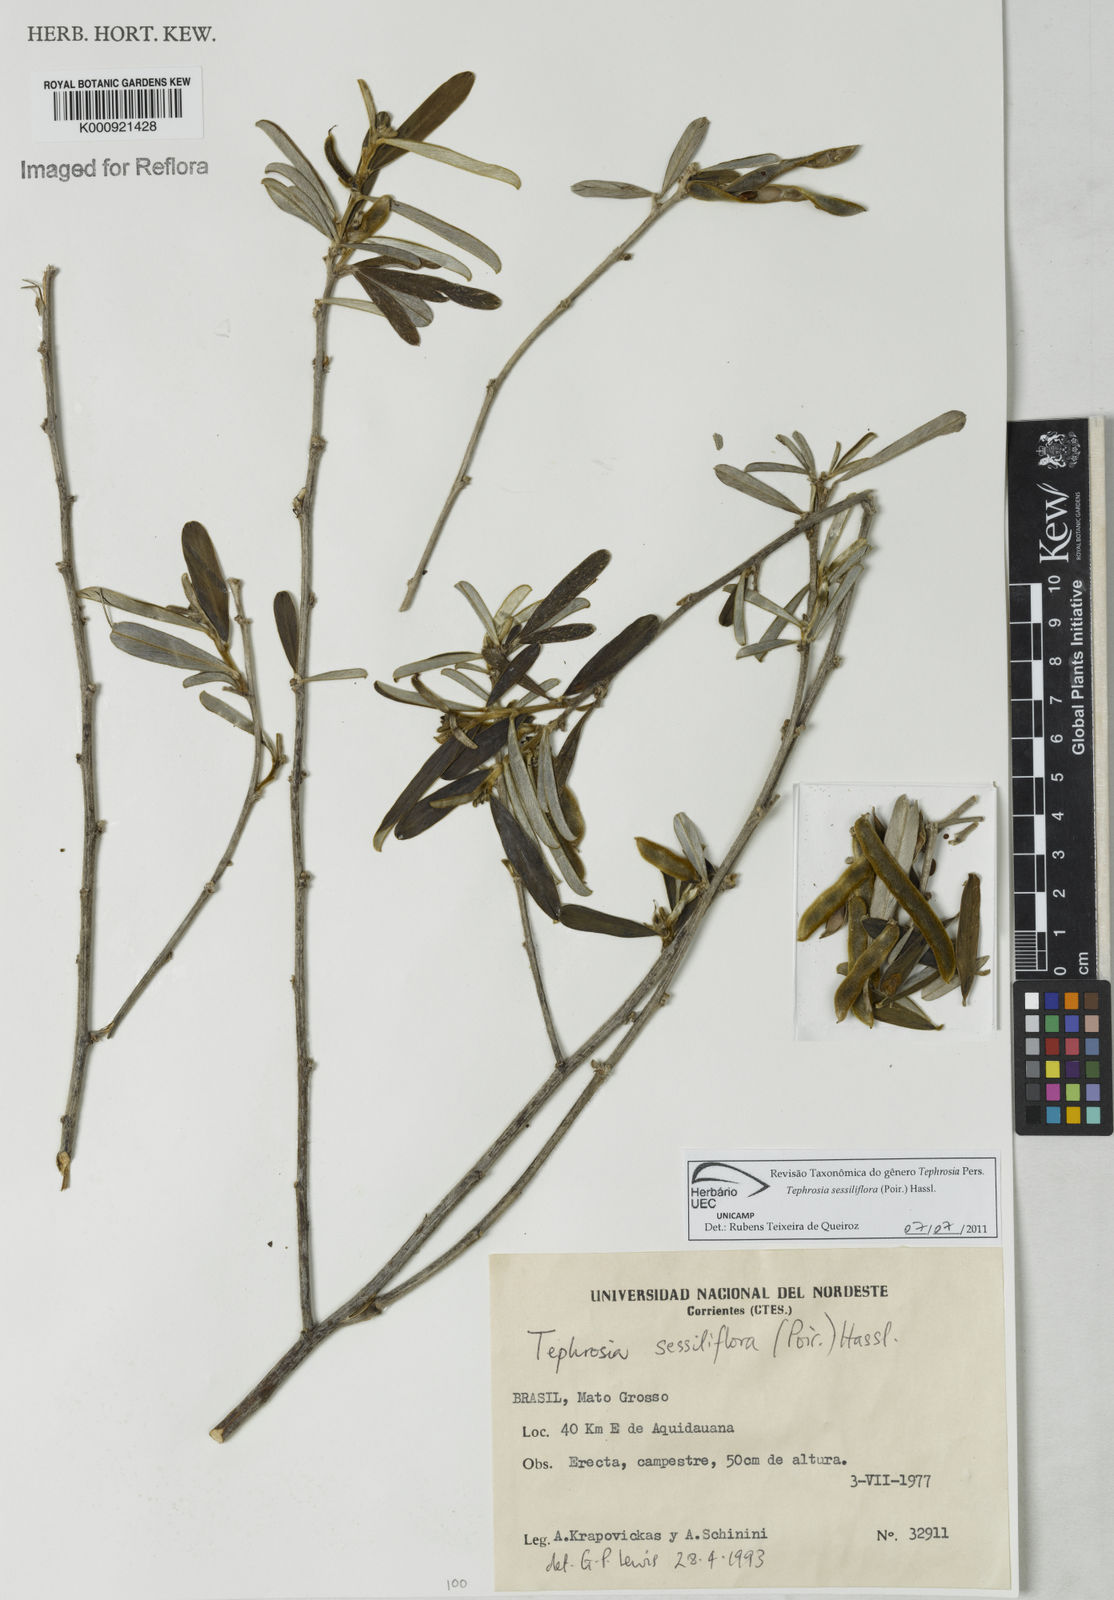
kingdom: Plantae
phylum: Tracheophyta
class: Magnoliopsida
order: Fabales
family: Fabaceae
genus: Tephrosia
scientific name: Tephrosia sessiliflora
